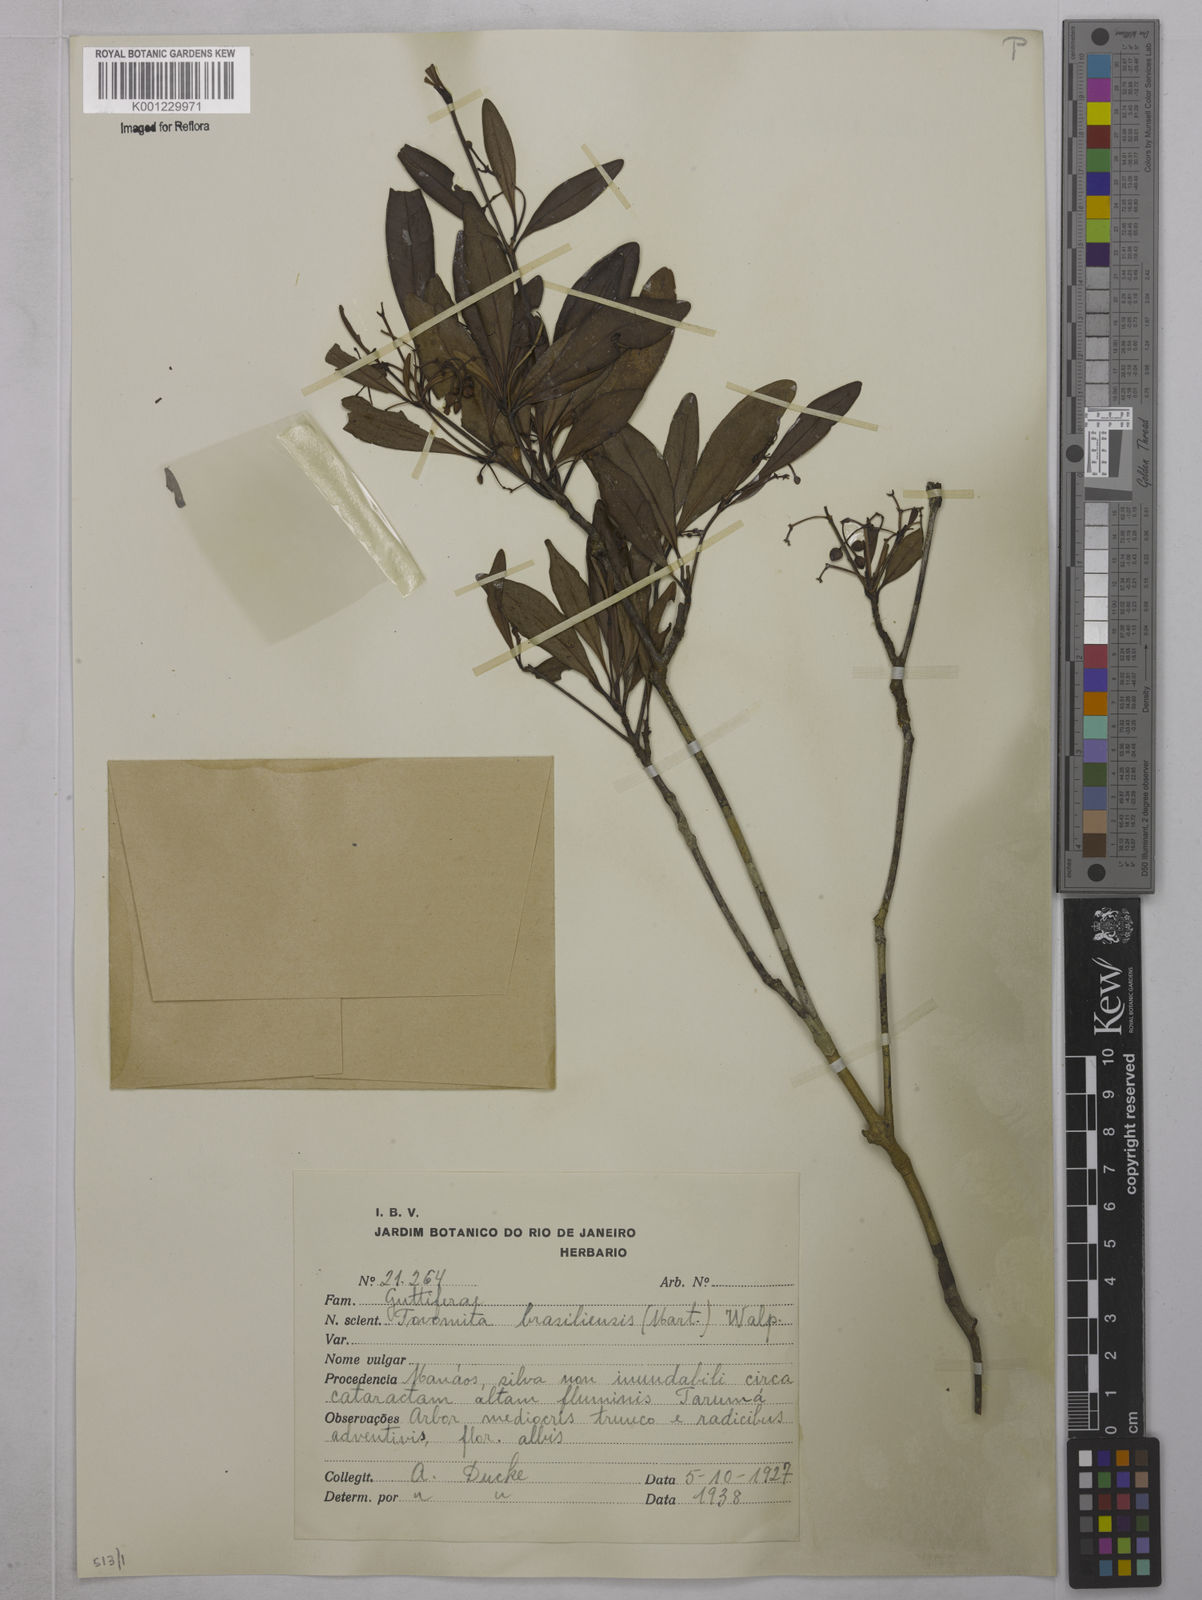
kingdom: Plantae
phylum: Tracheophyta
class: Magnoliopsida
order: Malpighiales
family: Clusiaceae
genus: Tovomita
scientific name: Tovomita
